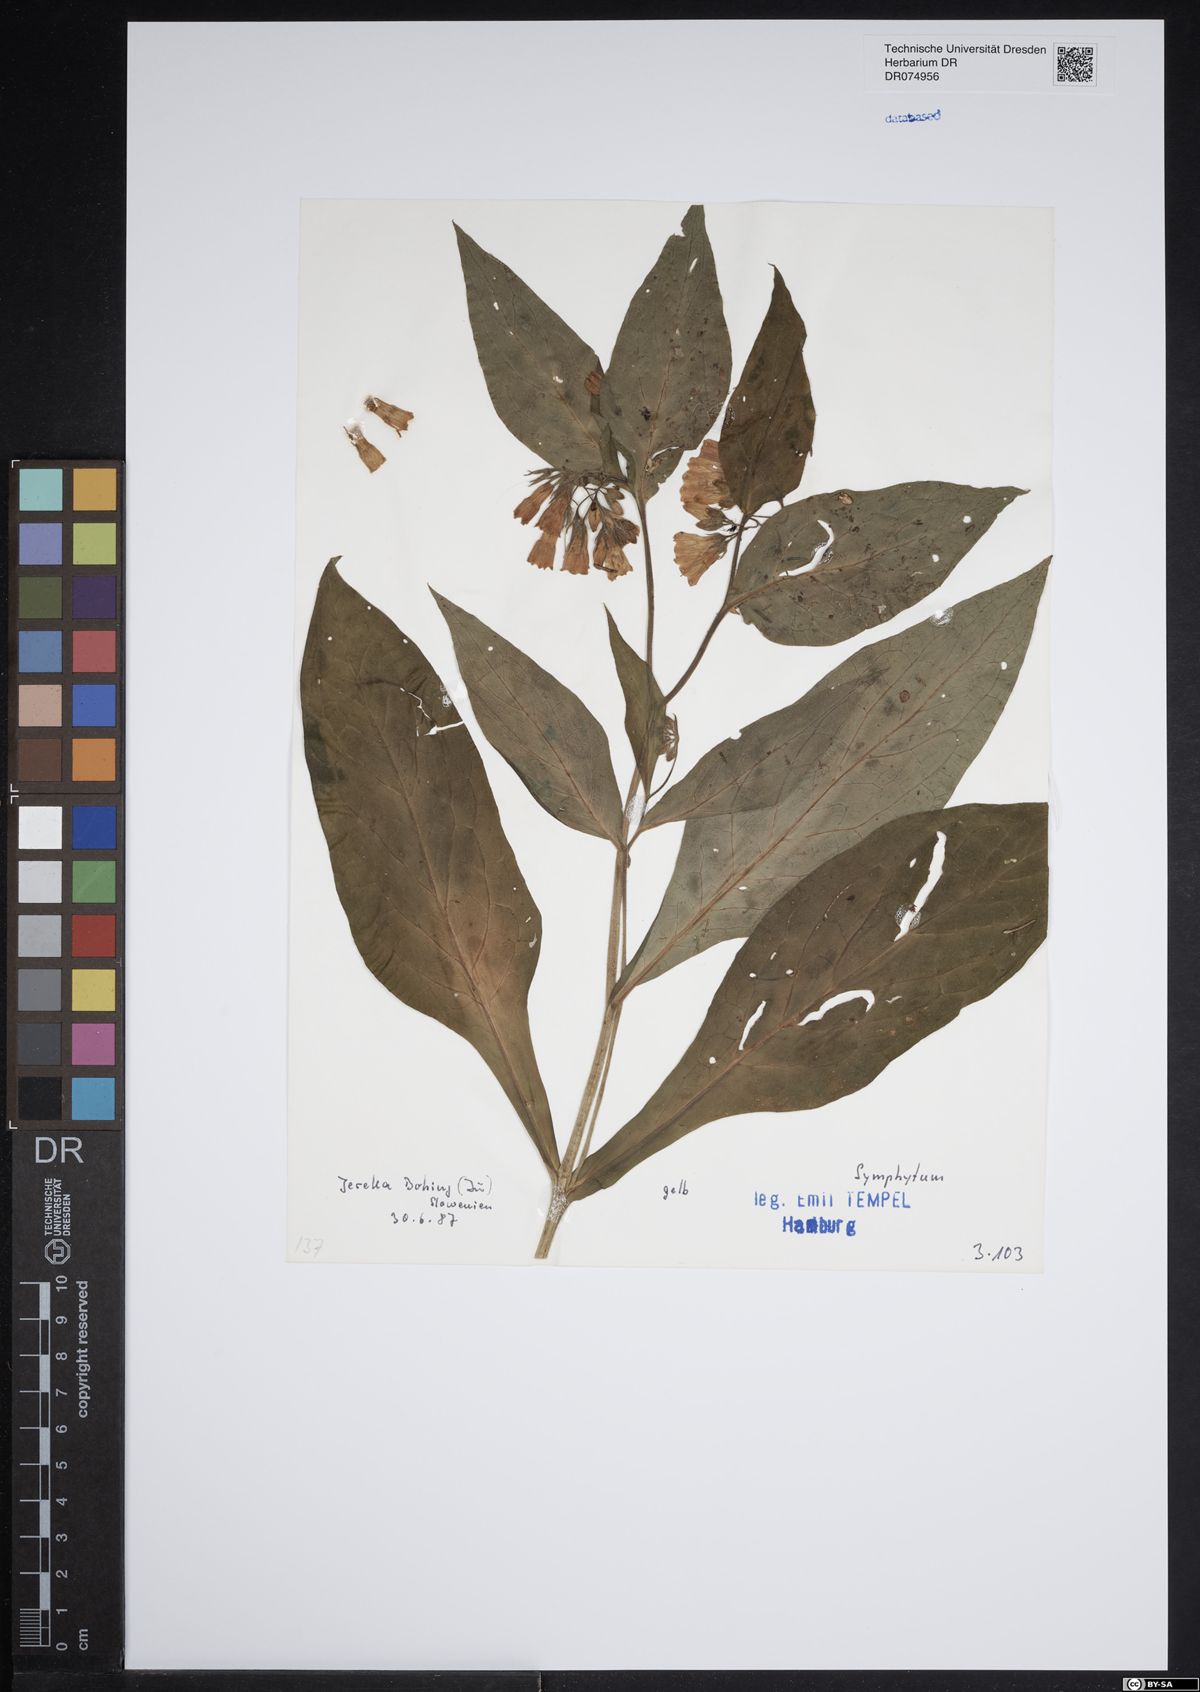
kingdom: Plantae
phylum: Tracheophyta
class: Magnoliopsida
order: Boraginales
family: Boraginaceae
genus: Symphytum
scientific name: Symphytum
